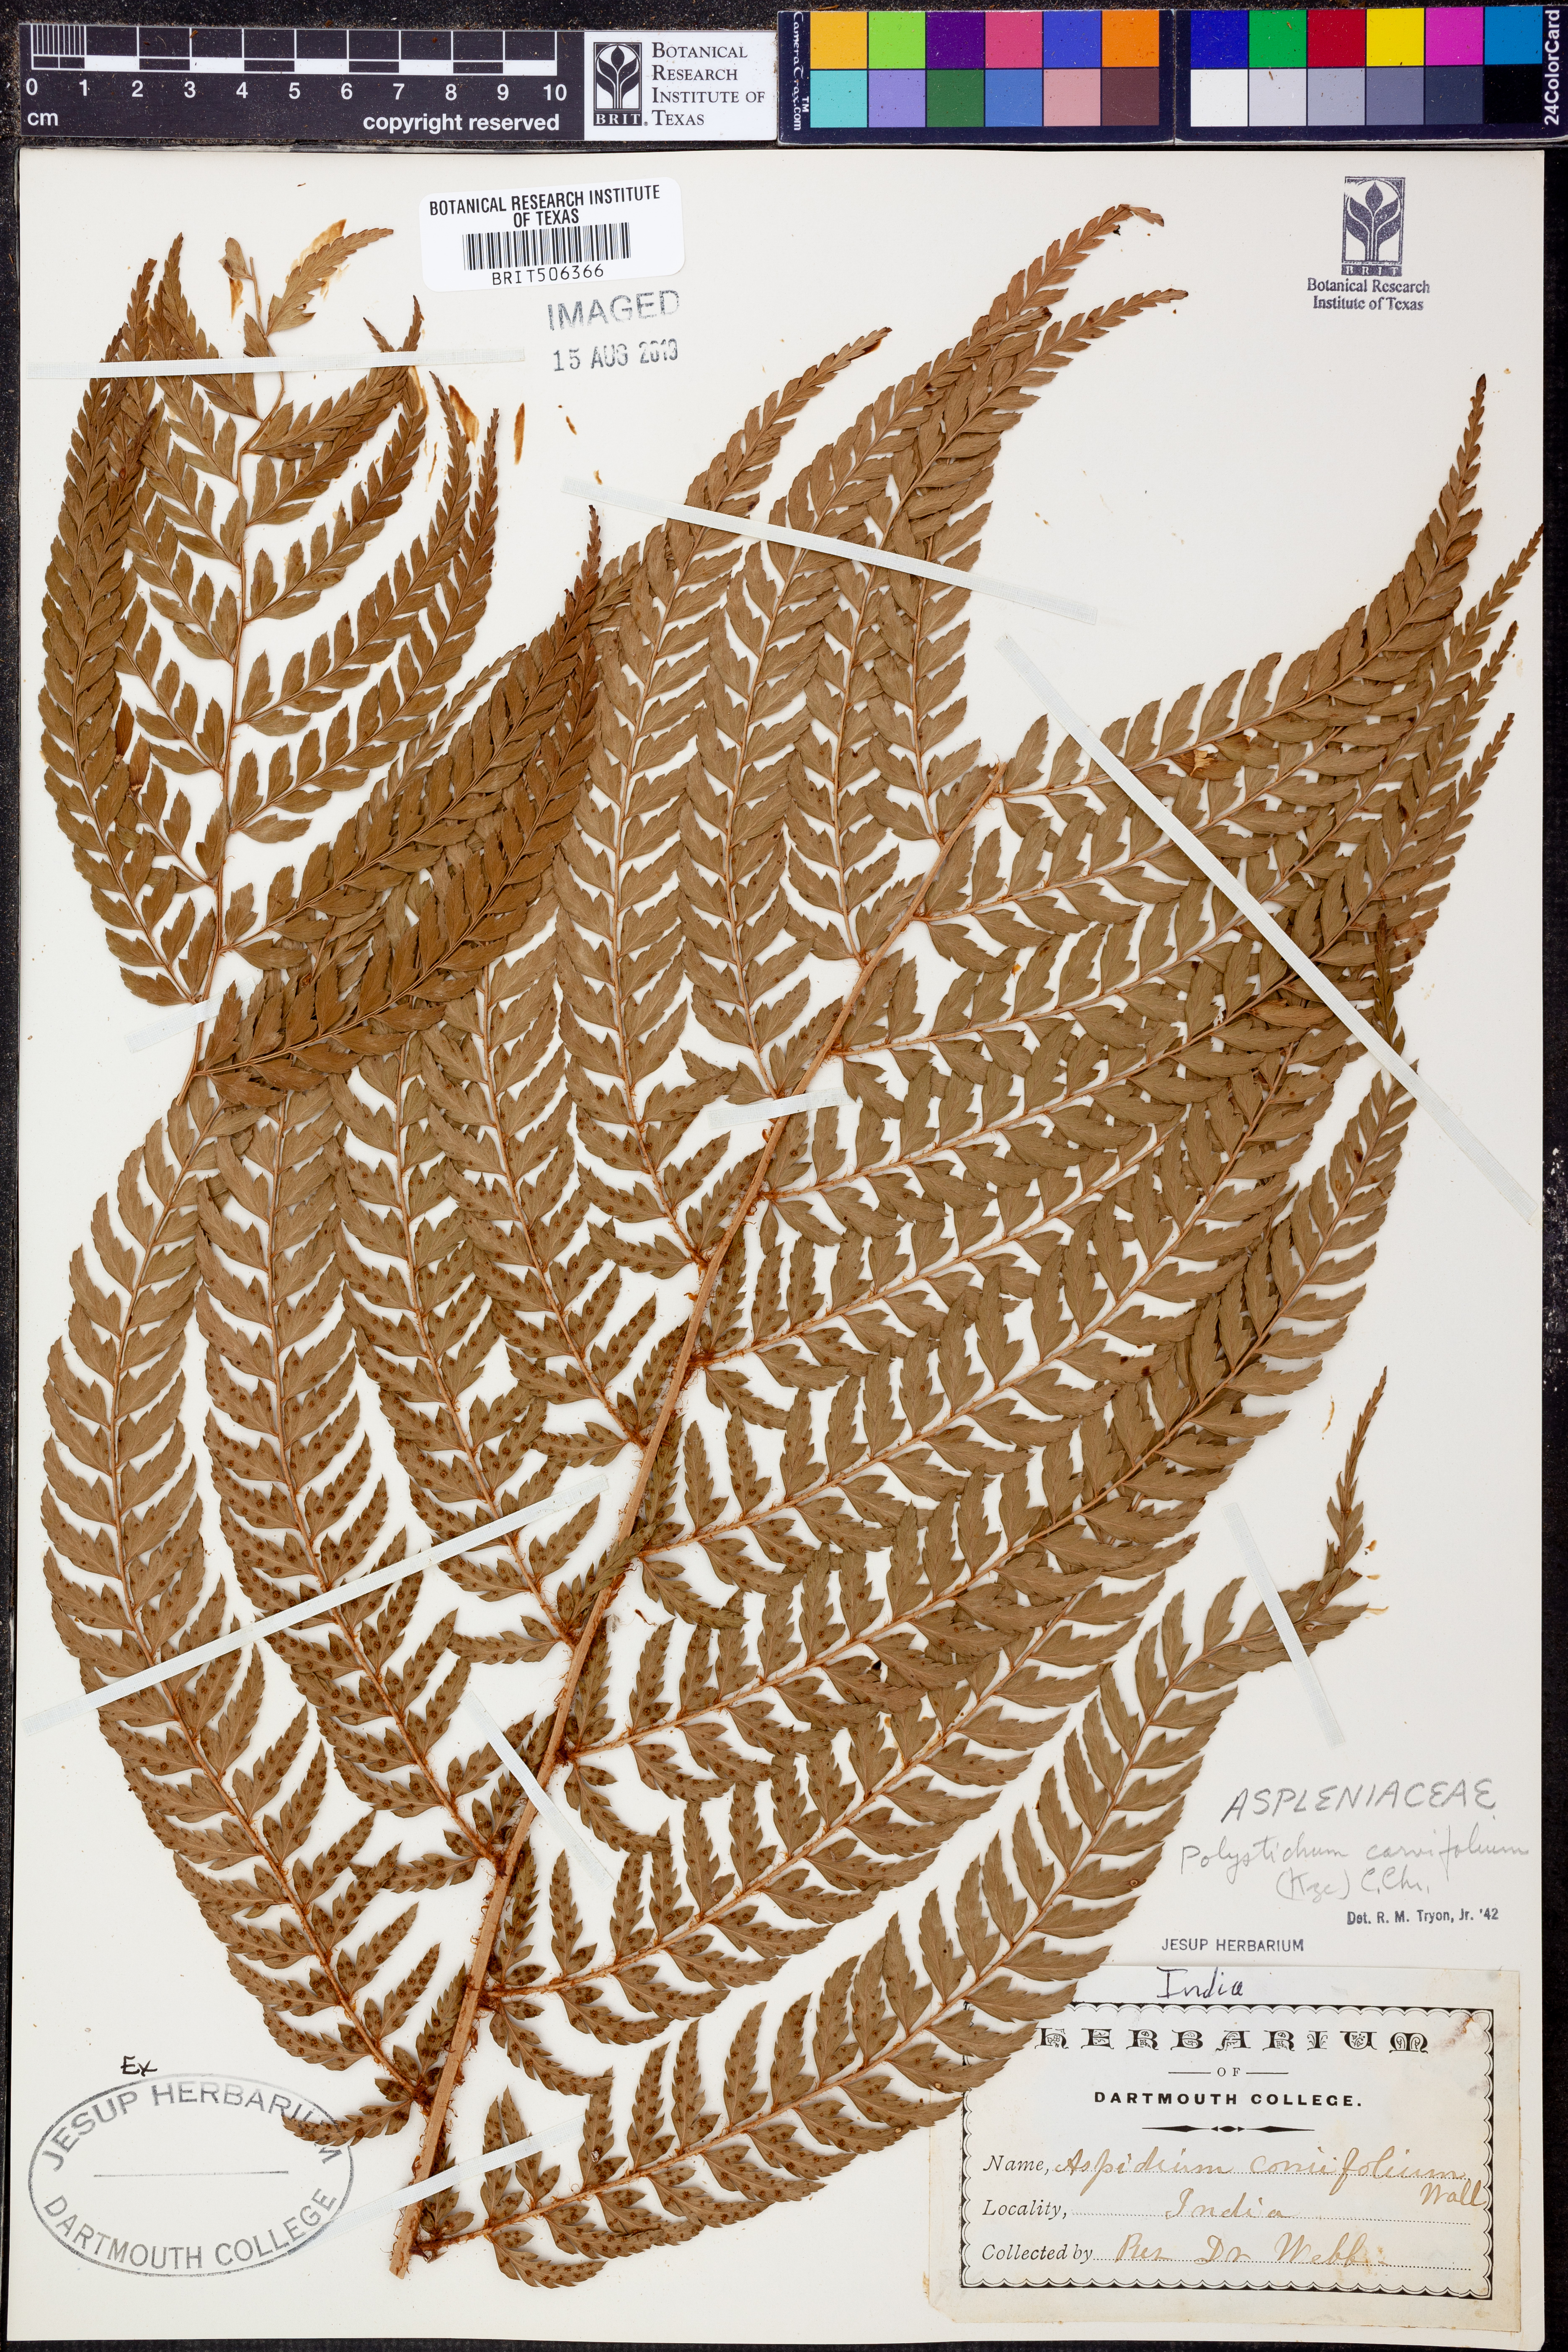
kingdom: Plantae
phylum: Tracheophyta
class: Polypodiopsida
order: Polypodiales
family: Dryopteridaceae
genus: Arachniodes
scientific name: Arachniodes carvifolia
